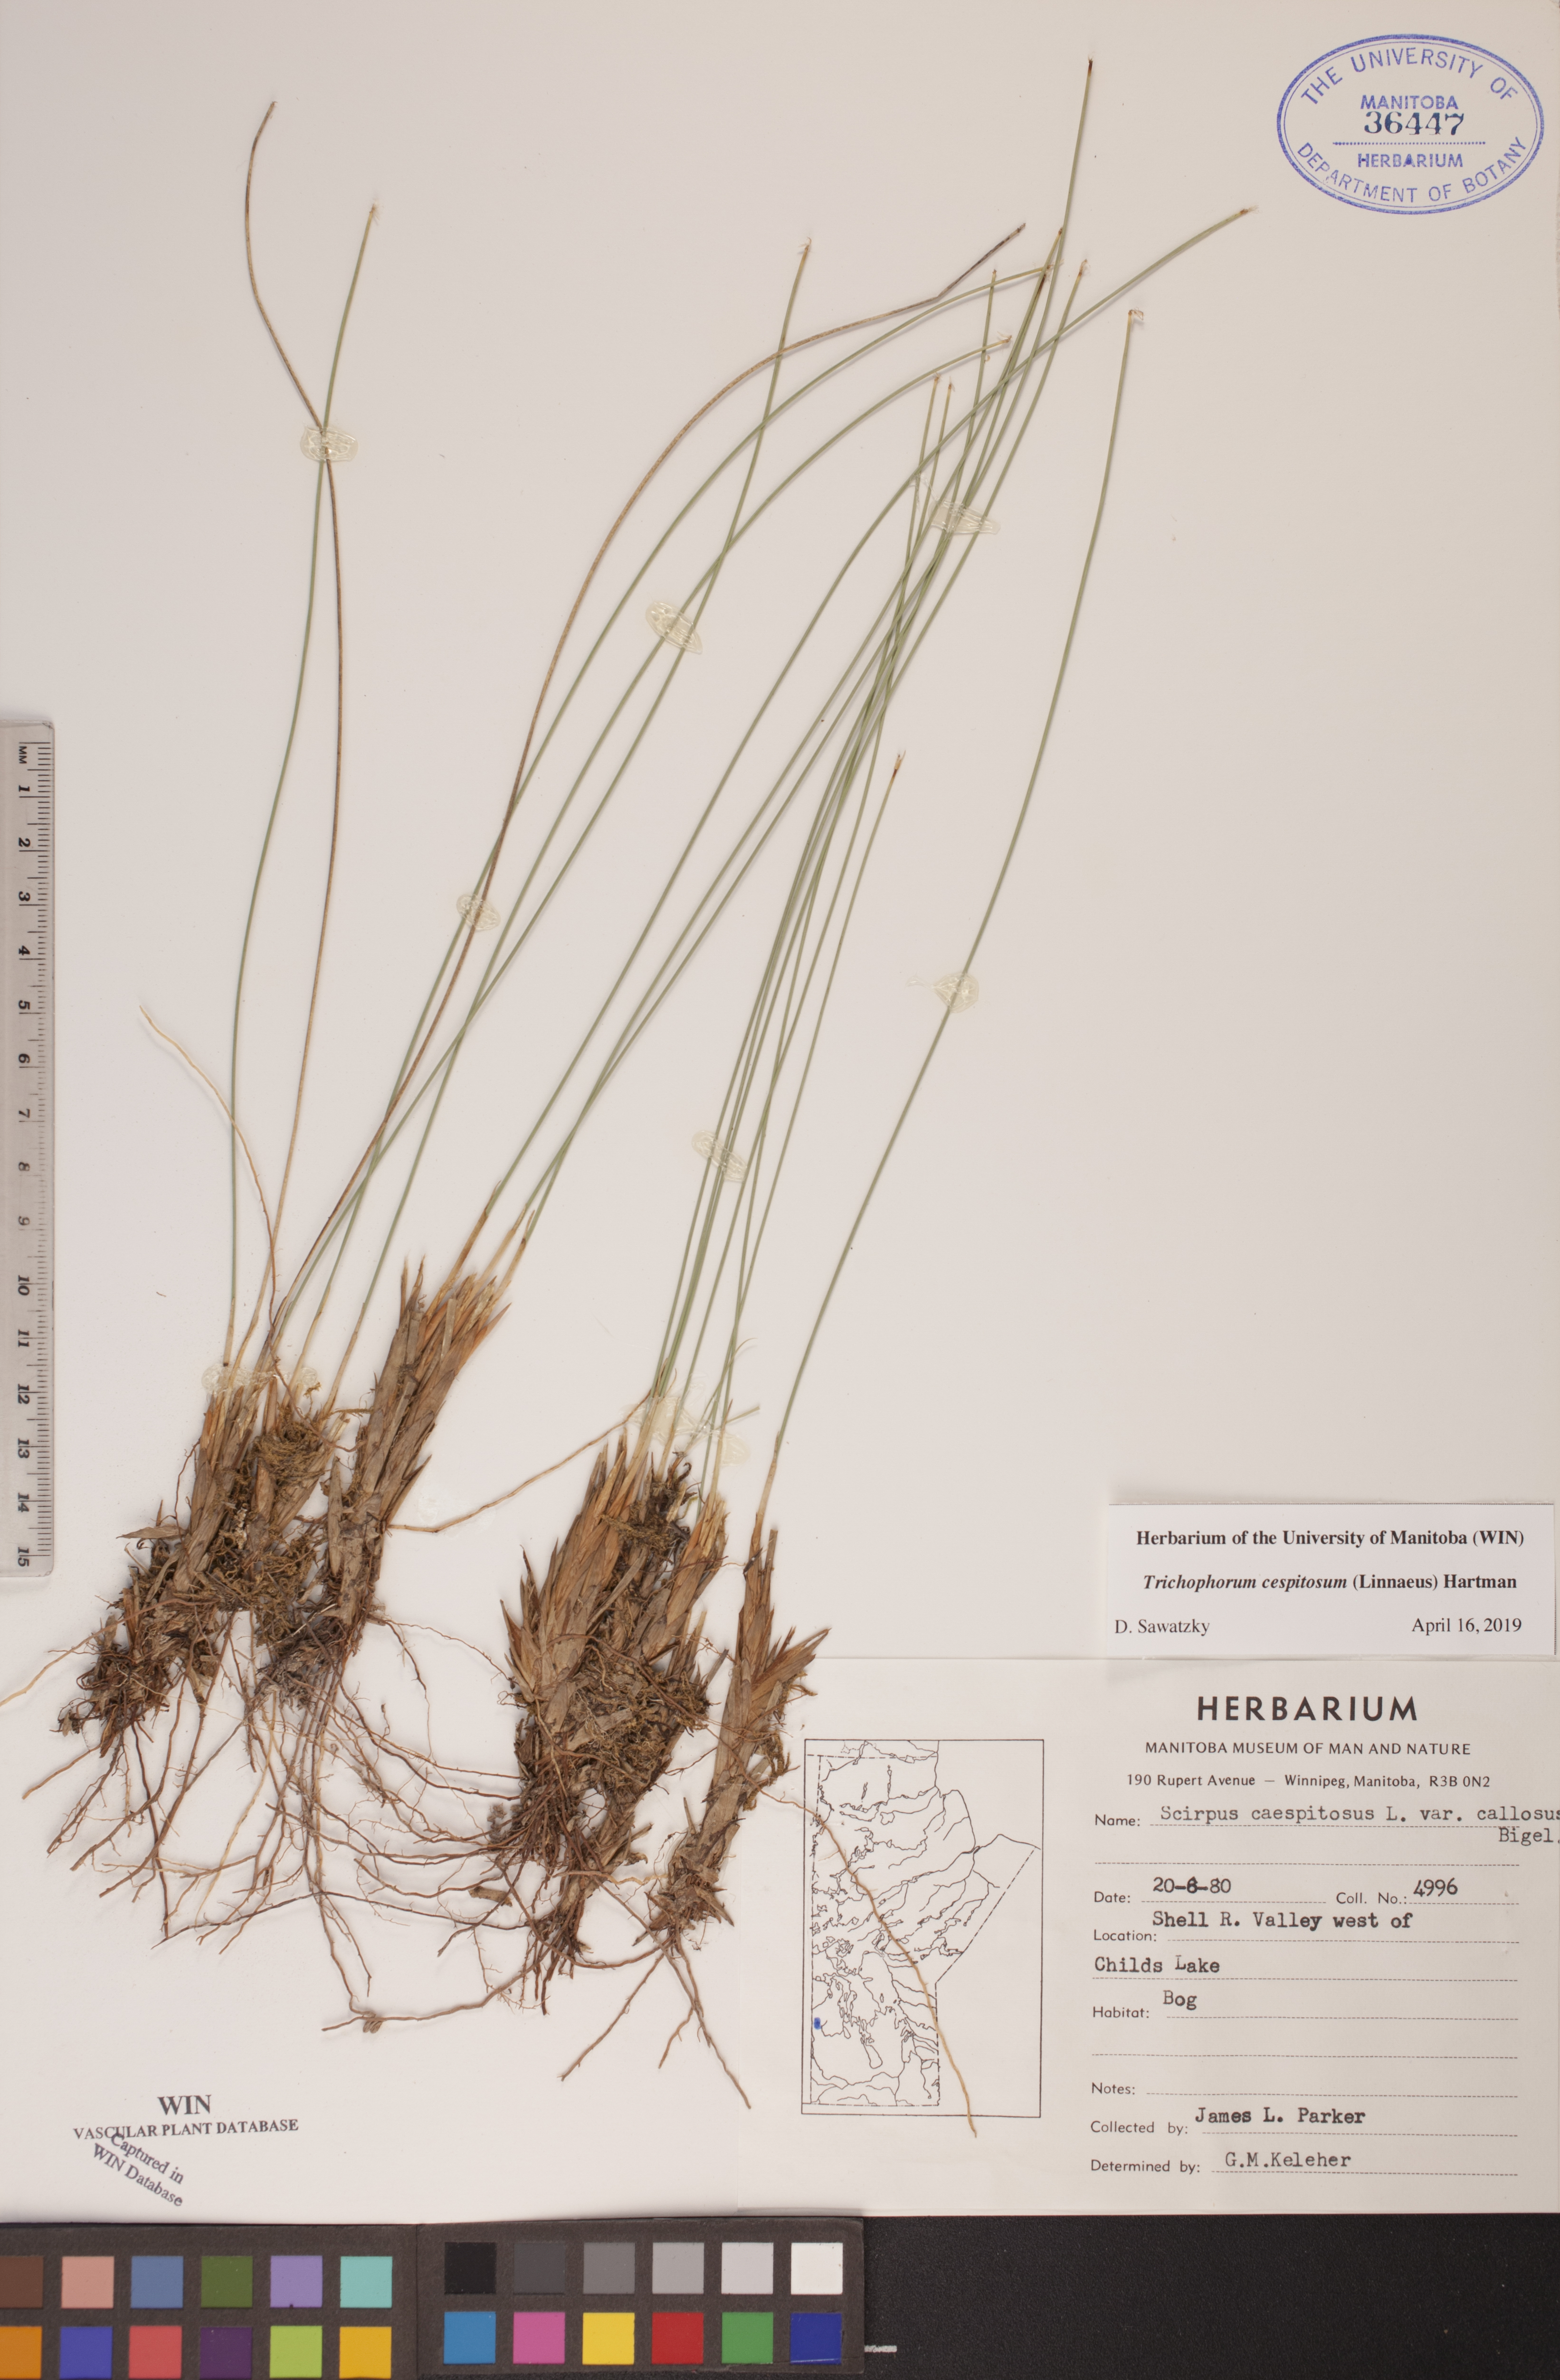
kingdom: Plantae
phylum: Tracheophyta
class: Liliopsida
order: Poales
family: Cyperaceae
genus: Trichophorum
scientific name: Trichophorum cespitosum
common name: Cespitose bulrush
